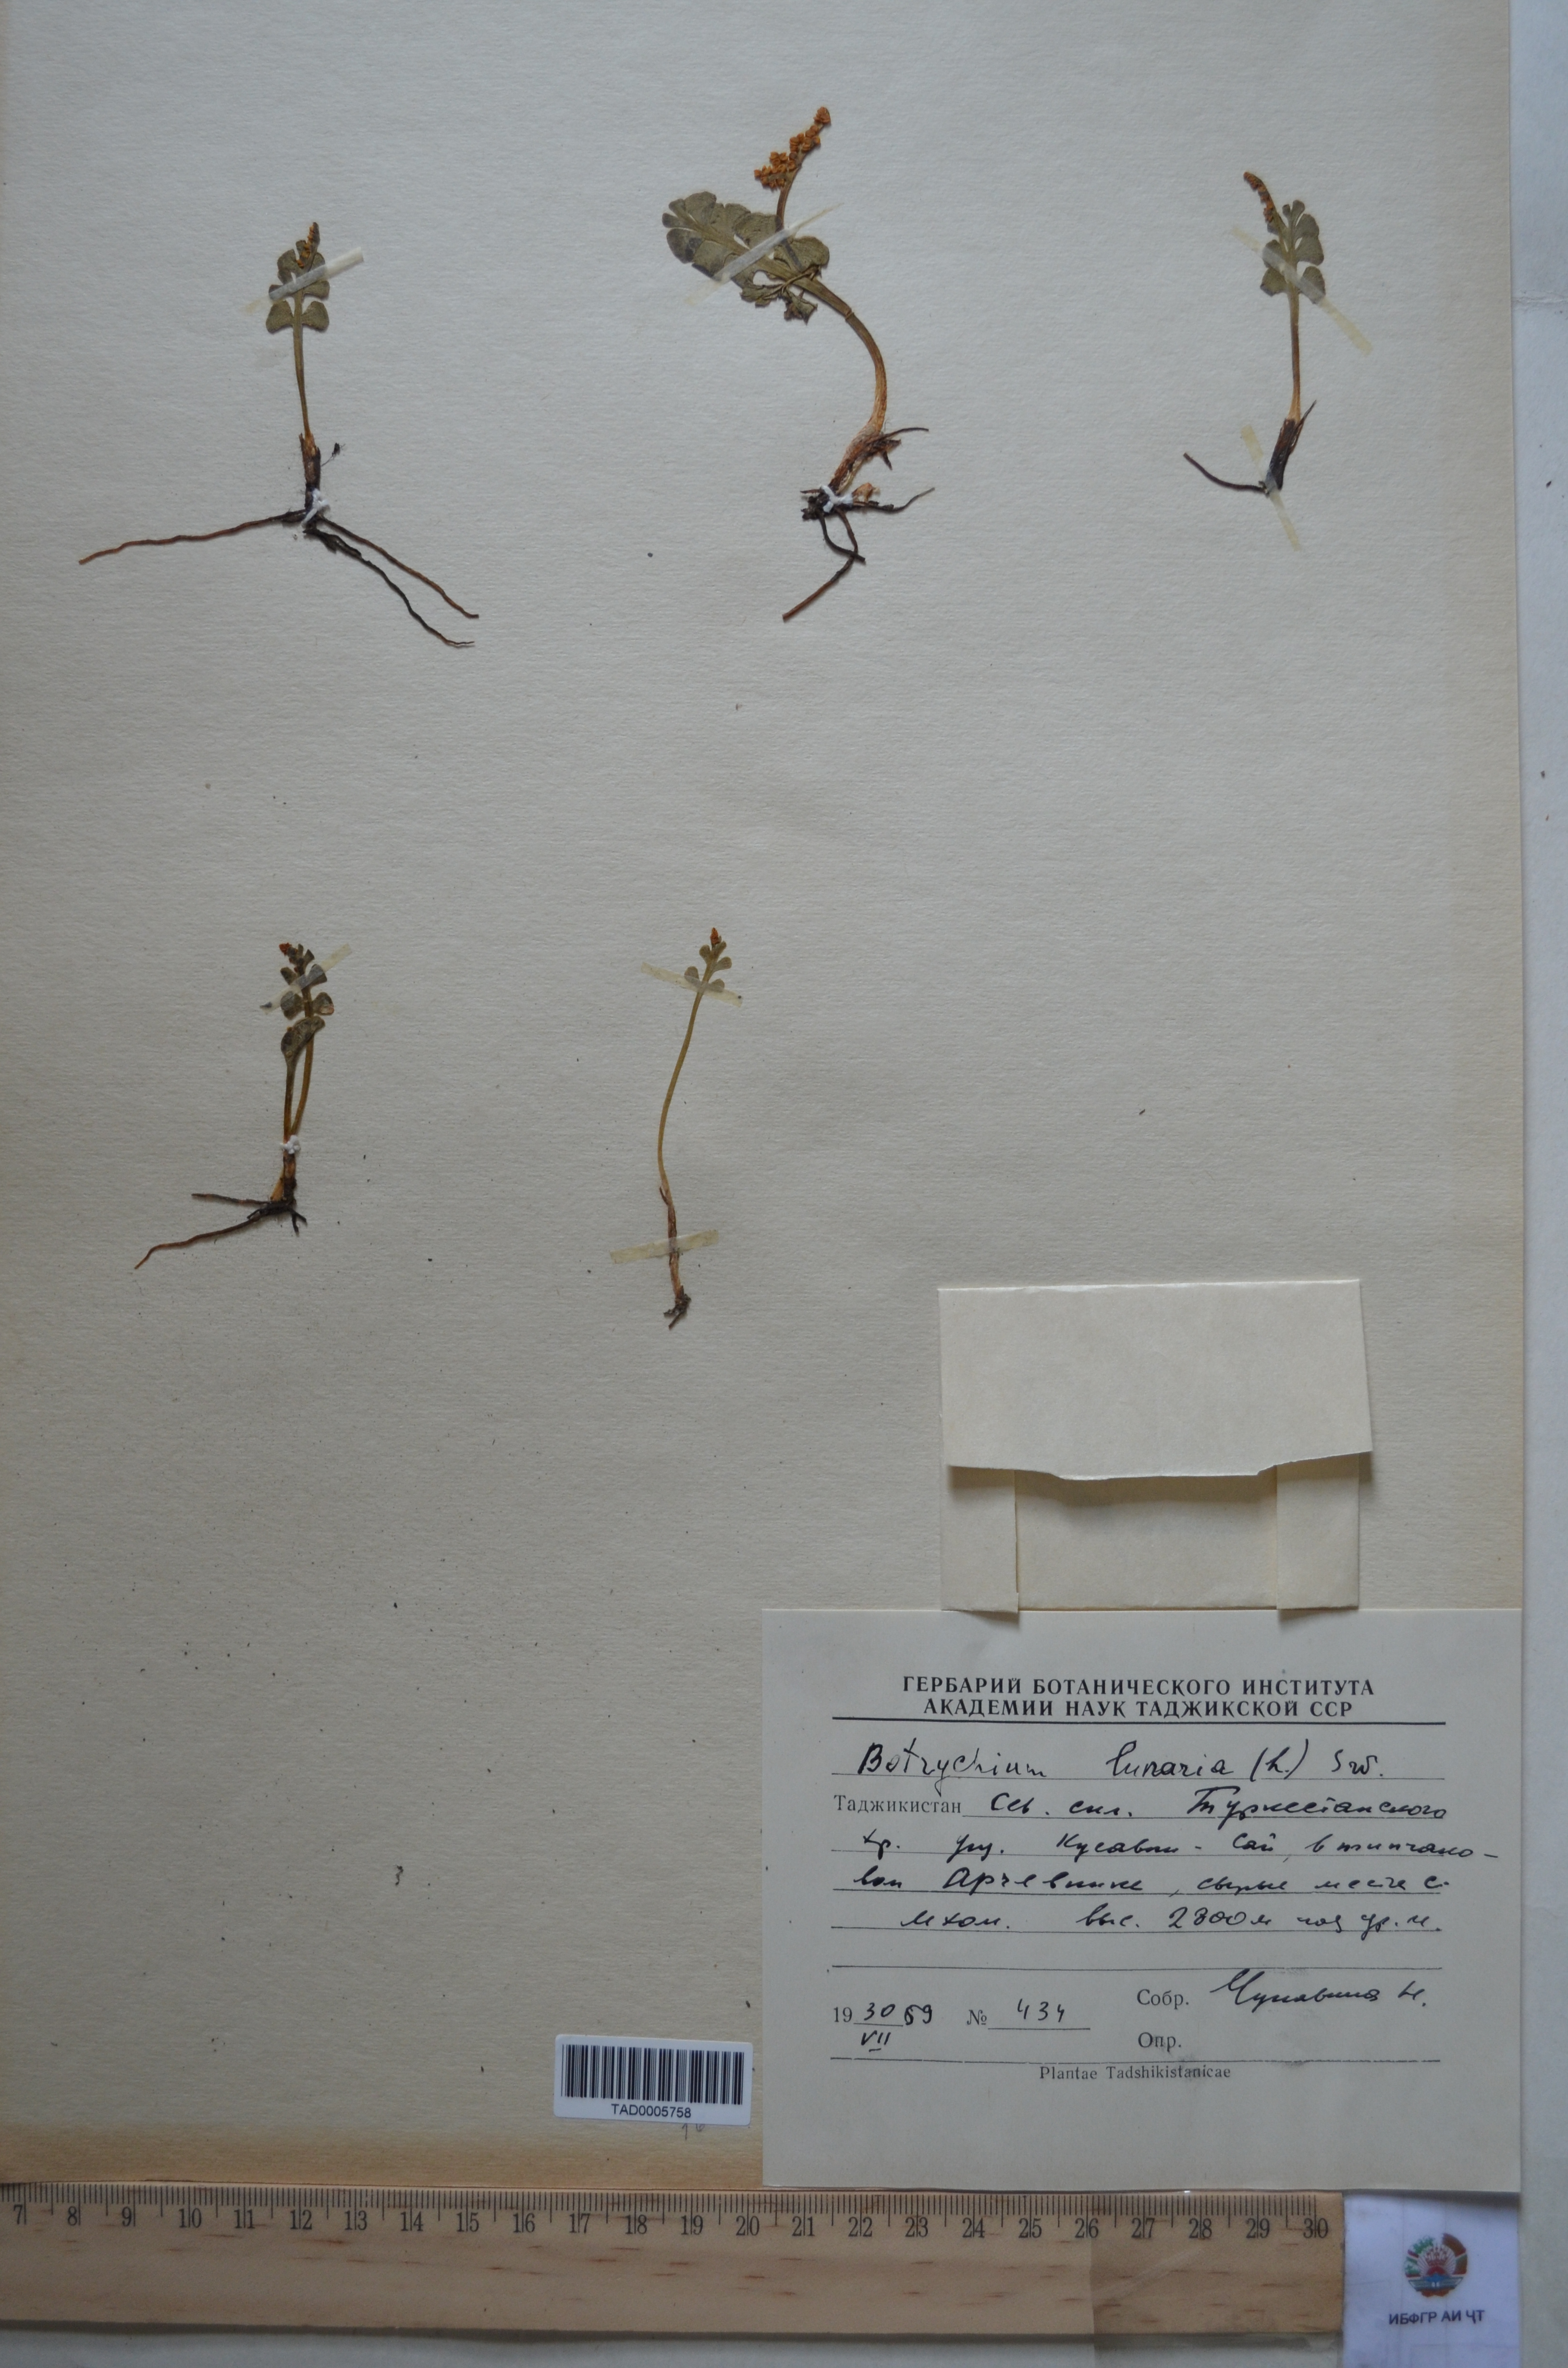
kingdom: Plantae
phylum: Tracheophyta
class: Polypodiopsida
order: Ophioglossales
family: Ophioglossaceae
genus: Botrychium
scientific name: Botrychium lunaria
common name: Moonwort
